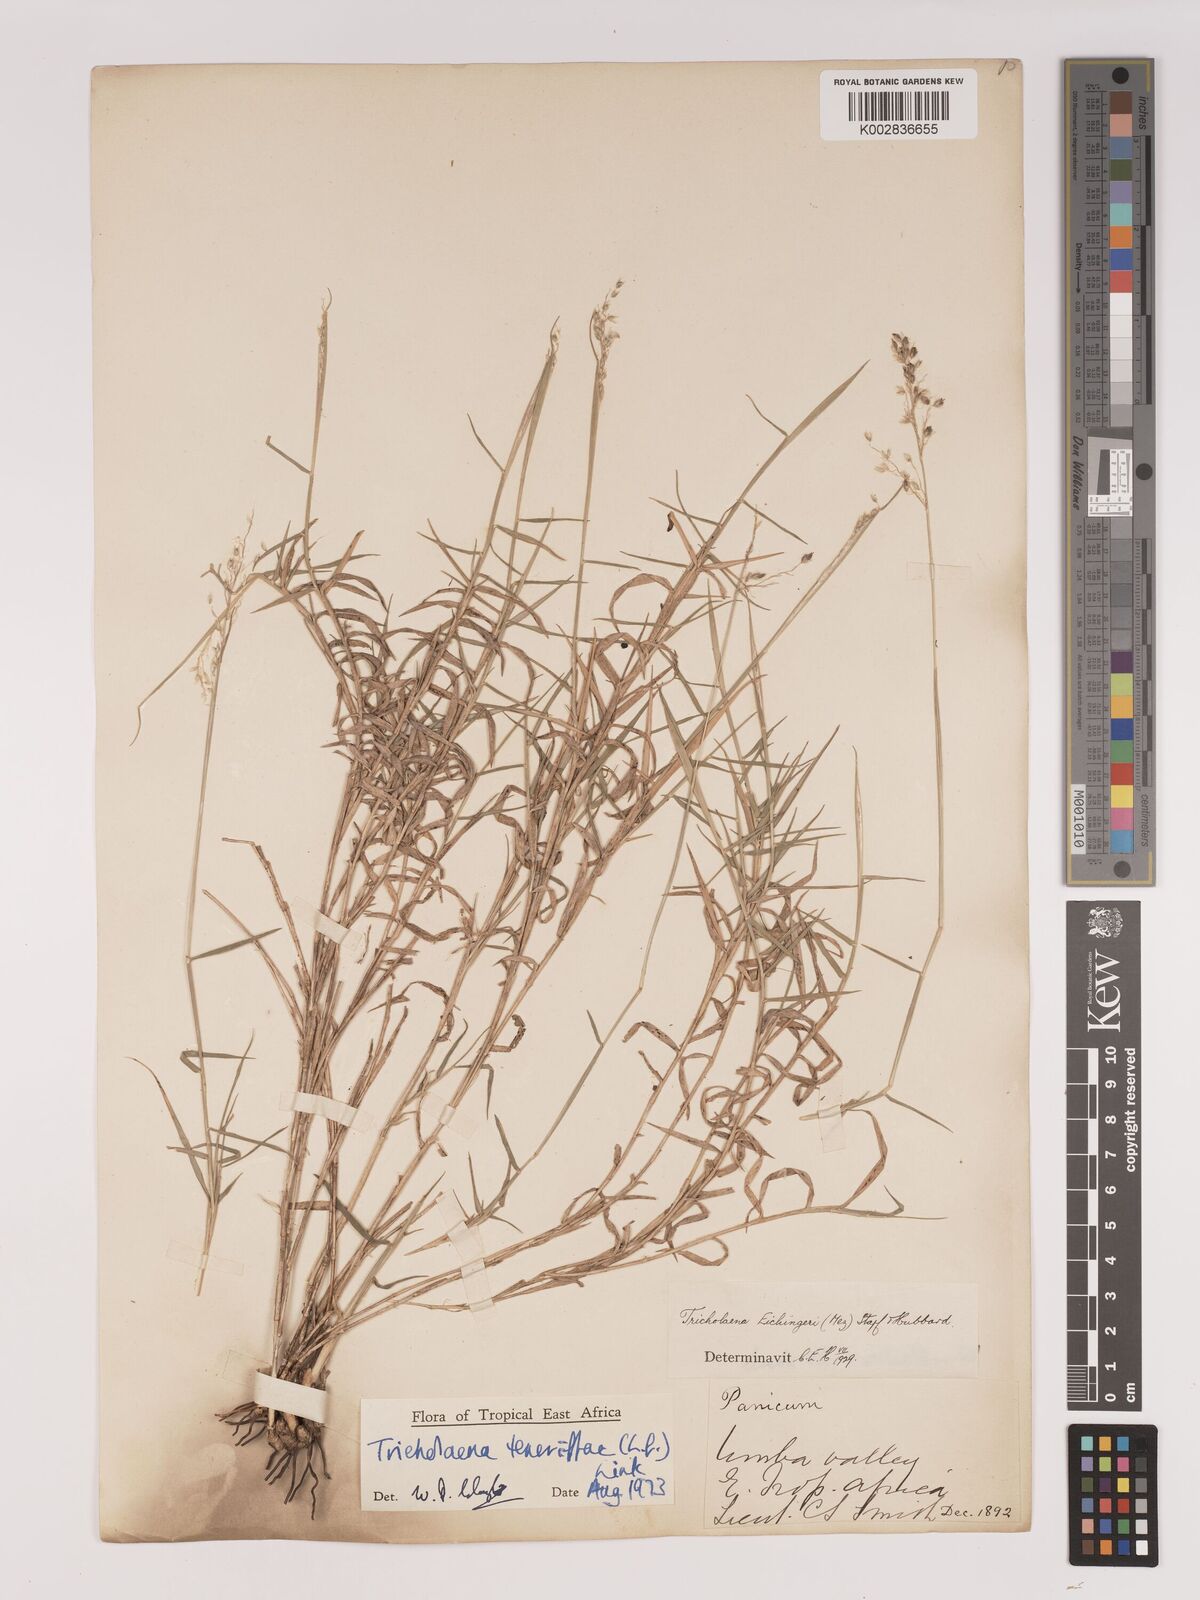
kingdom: Plantae
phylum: Tracheophyta
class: Liliopsida
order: Poales
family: Poaceae
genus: Tricholaena
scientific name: Tricholaena teneriffae
